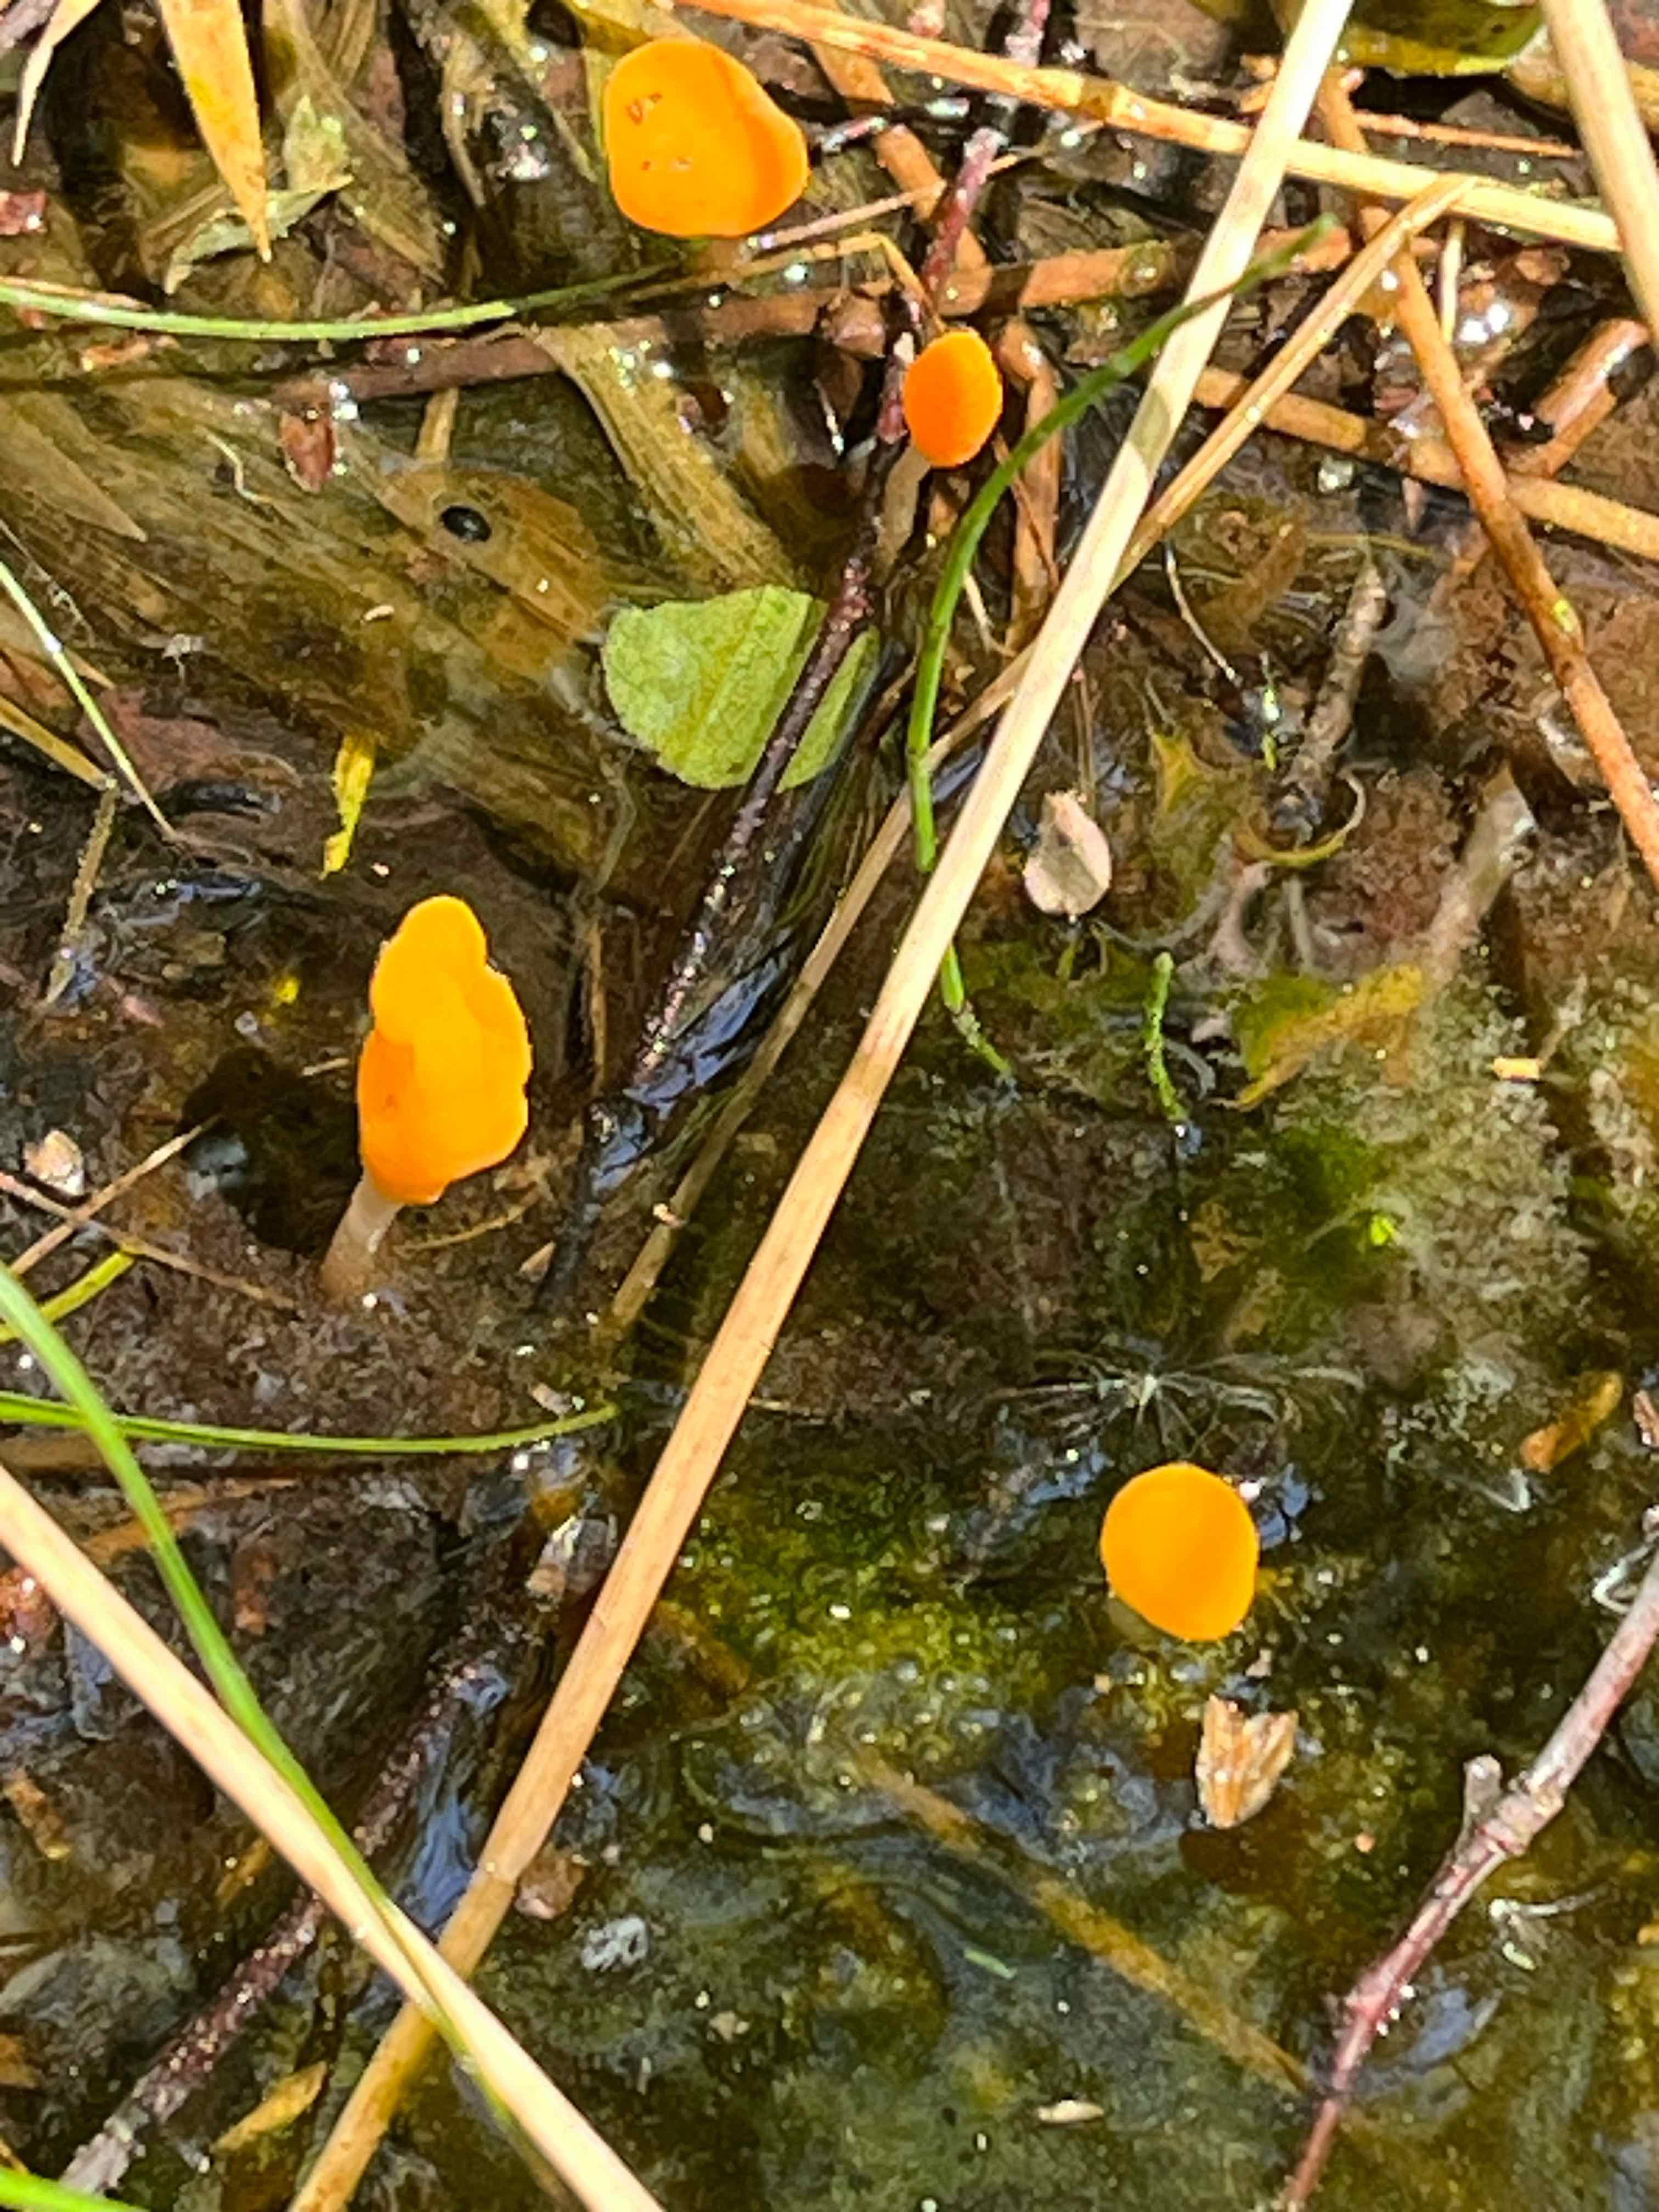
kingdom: Fungi
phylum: Ascomycota
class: Leotiomycetes
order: Helotiales
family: Cenangiaceae
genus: Mitrula
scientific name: Mitrula paludosa
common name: gul nøkketunge
